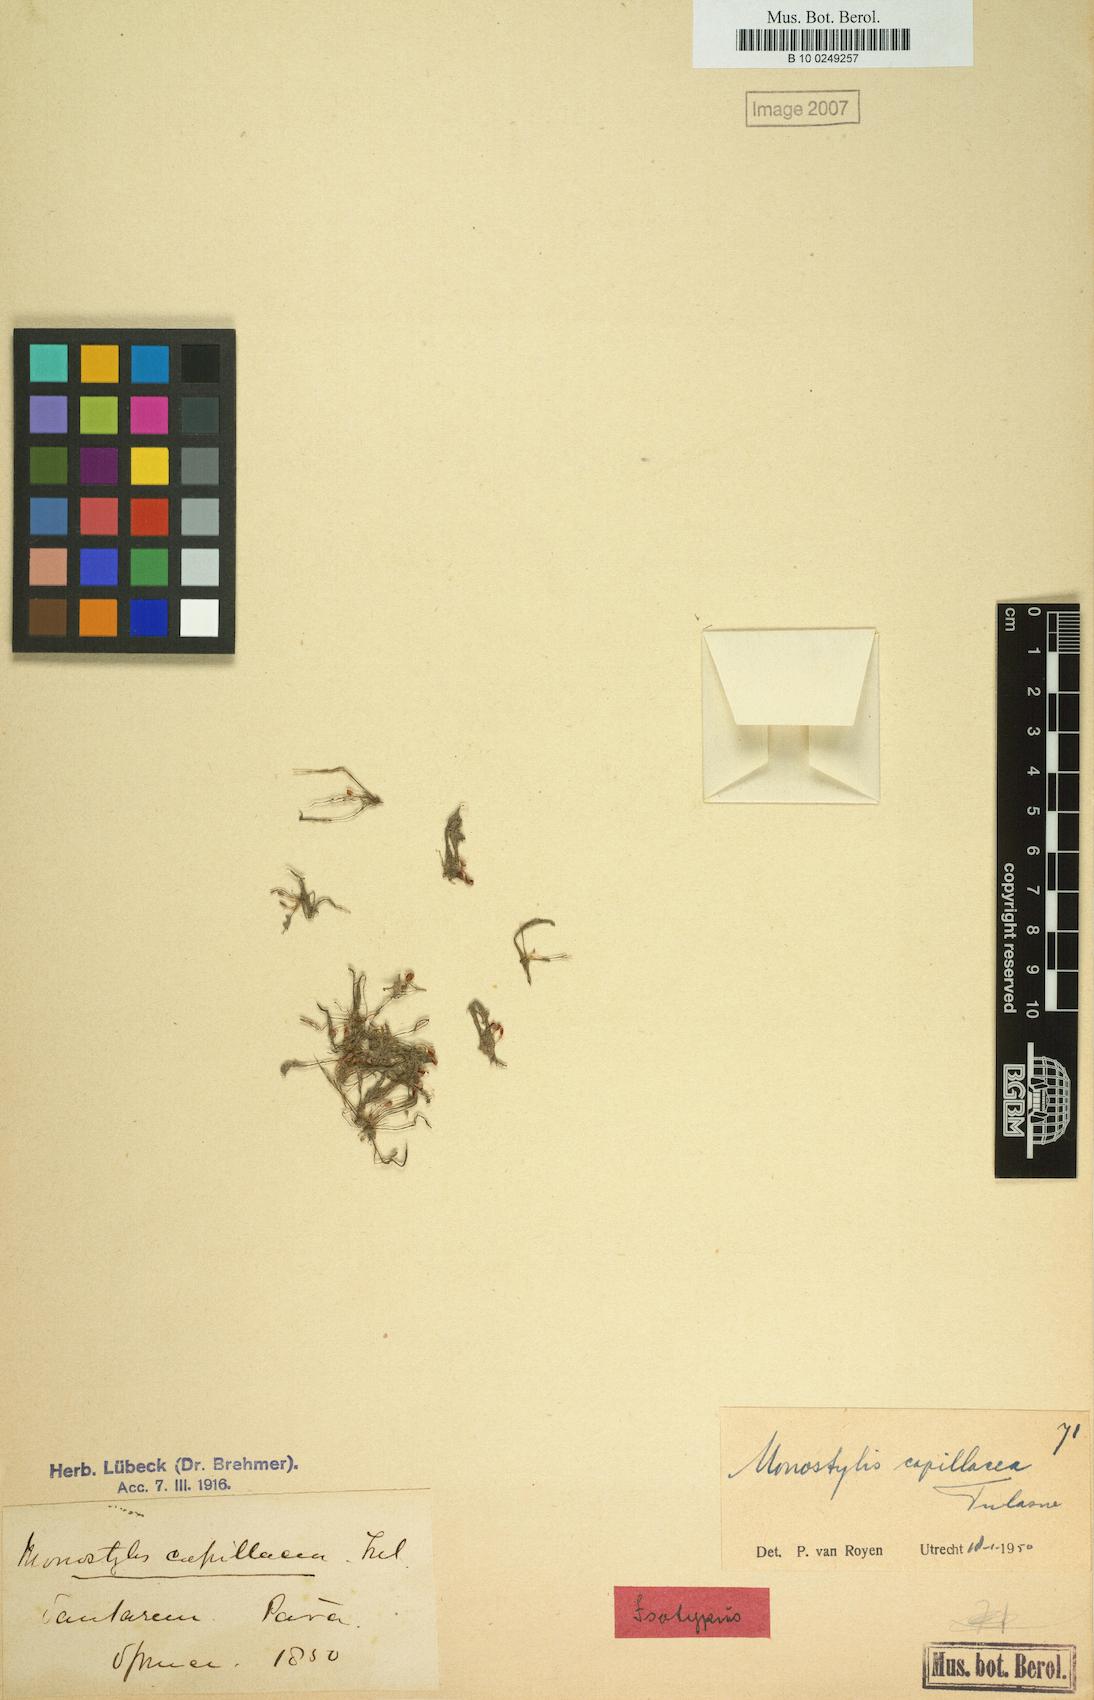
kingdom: Plantae
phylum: Tracheophyta
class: Magnoliopsida
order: Malpighiales
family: Podostemaceae
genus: Lophogyne
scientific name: Lophogyne royenella
